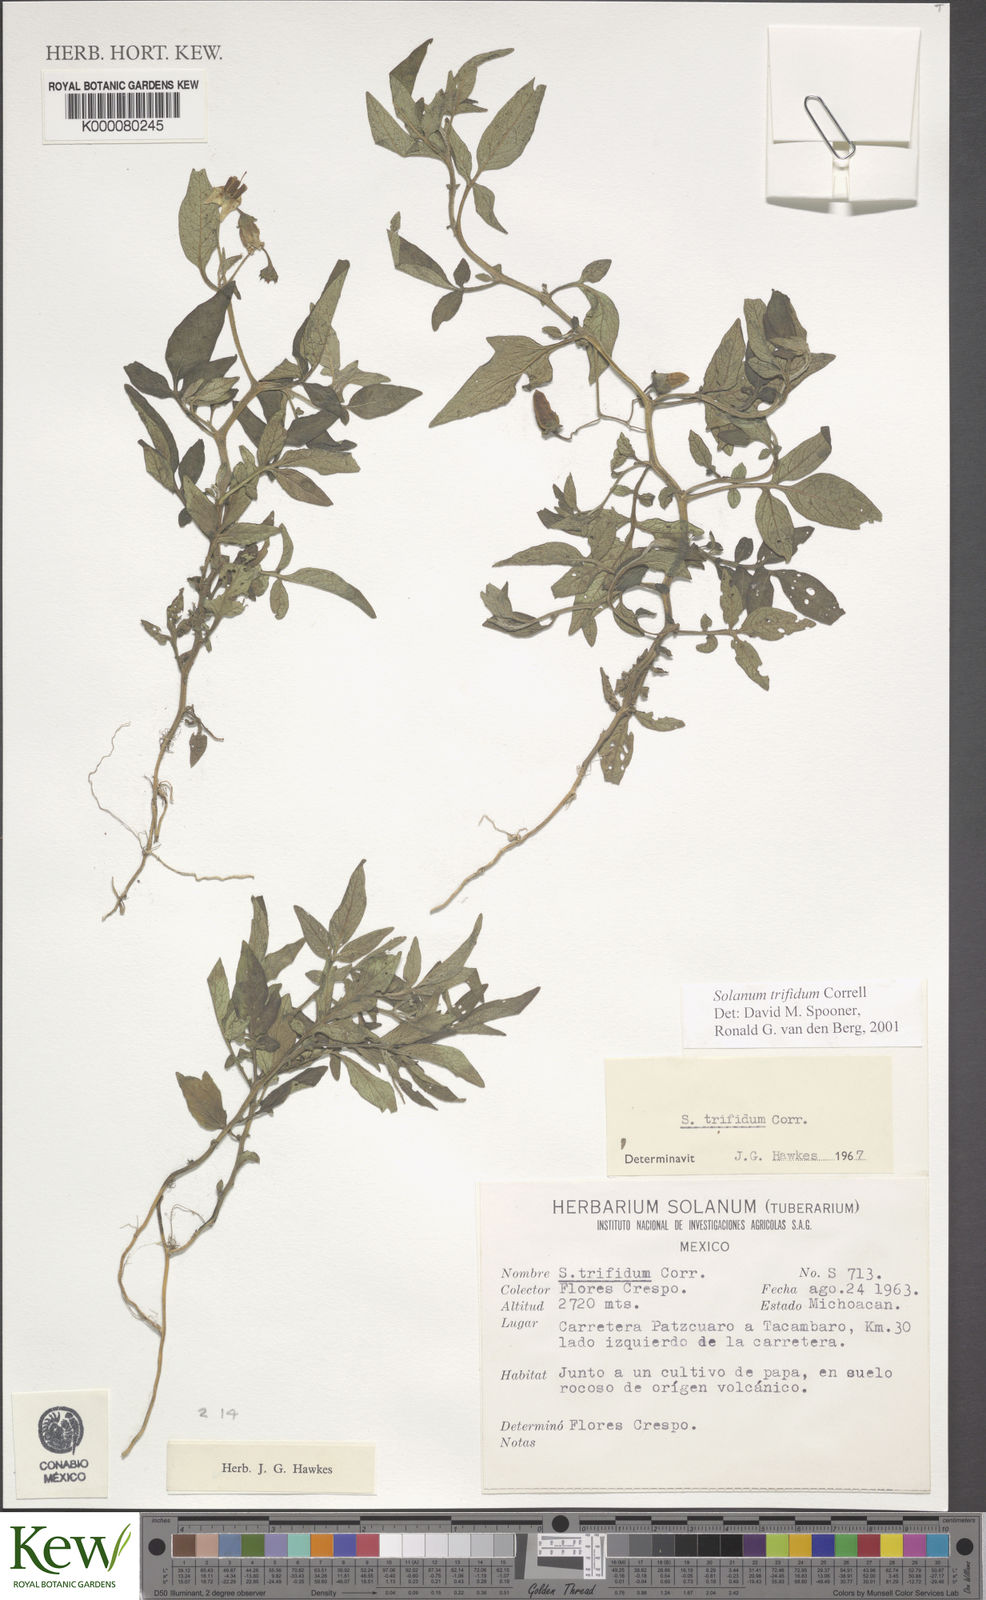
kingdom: Plantae
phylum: Tracheophyta
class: Magnoliopsida
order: Solanales
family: Solanaceae
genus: Solanum
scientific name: Solanum trifidum
